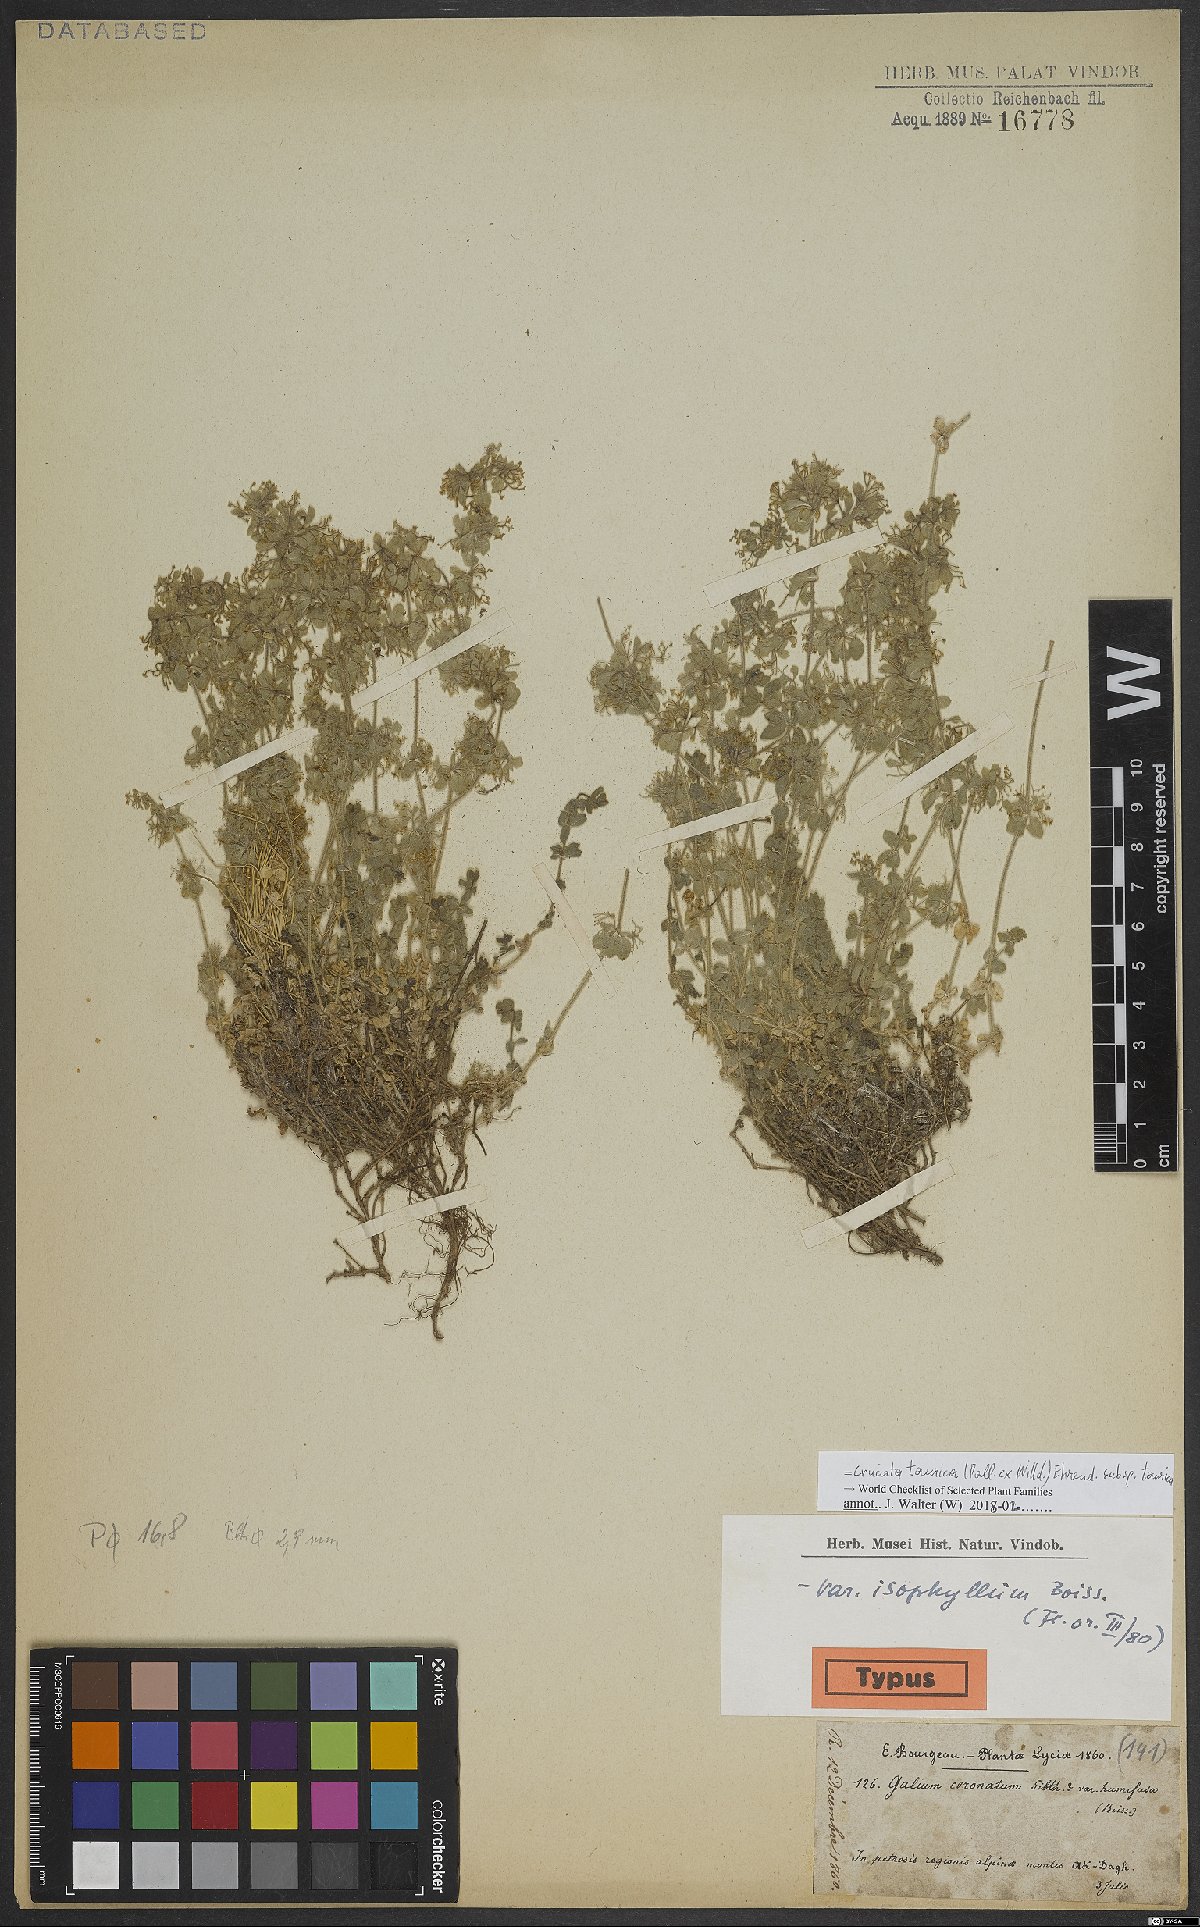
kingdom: Plantae
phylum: Tracheophyta
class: Magnoliopsida
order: Gentianales
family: Rubiaceae
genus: Cruciata
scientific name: Cruciata taurica
